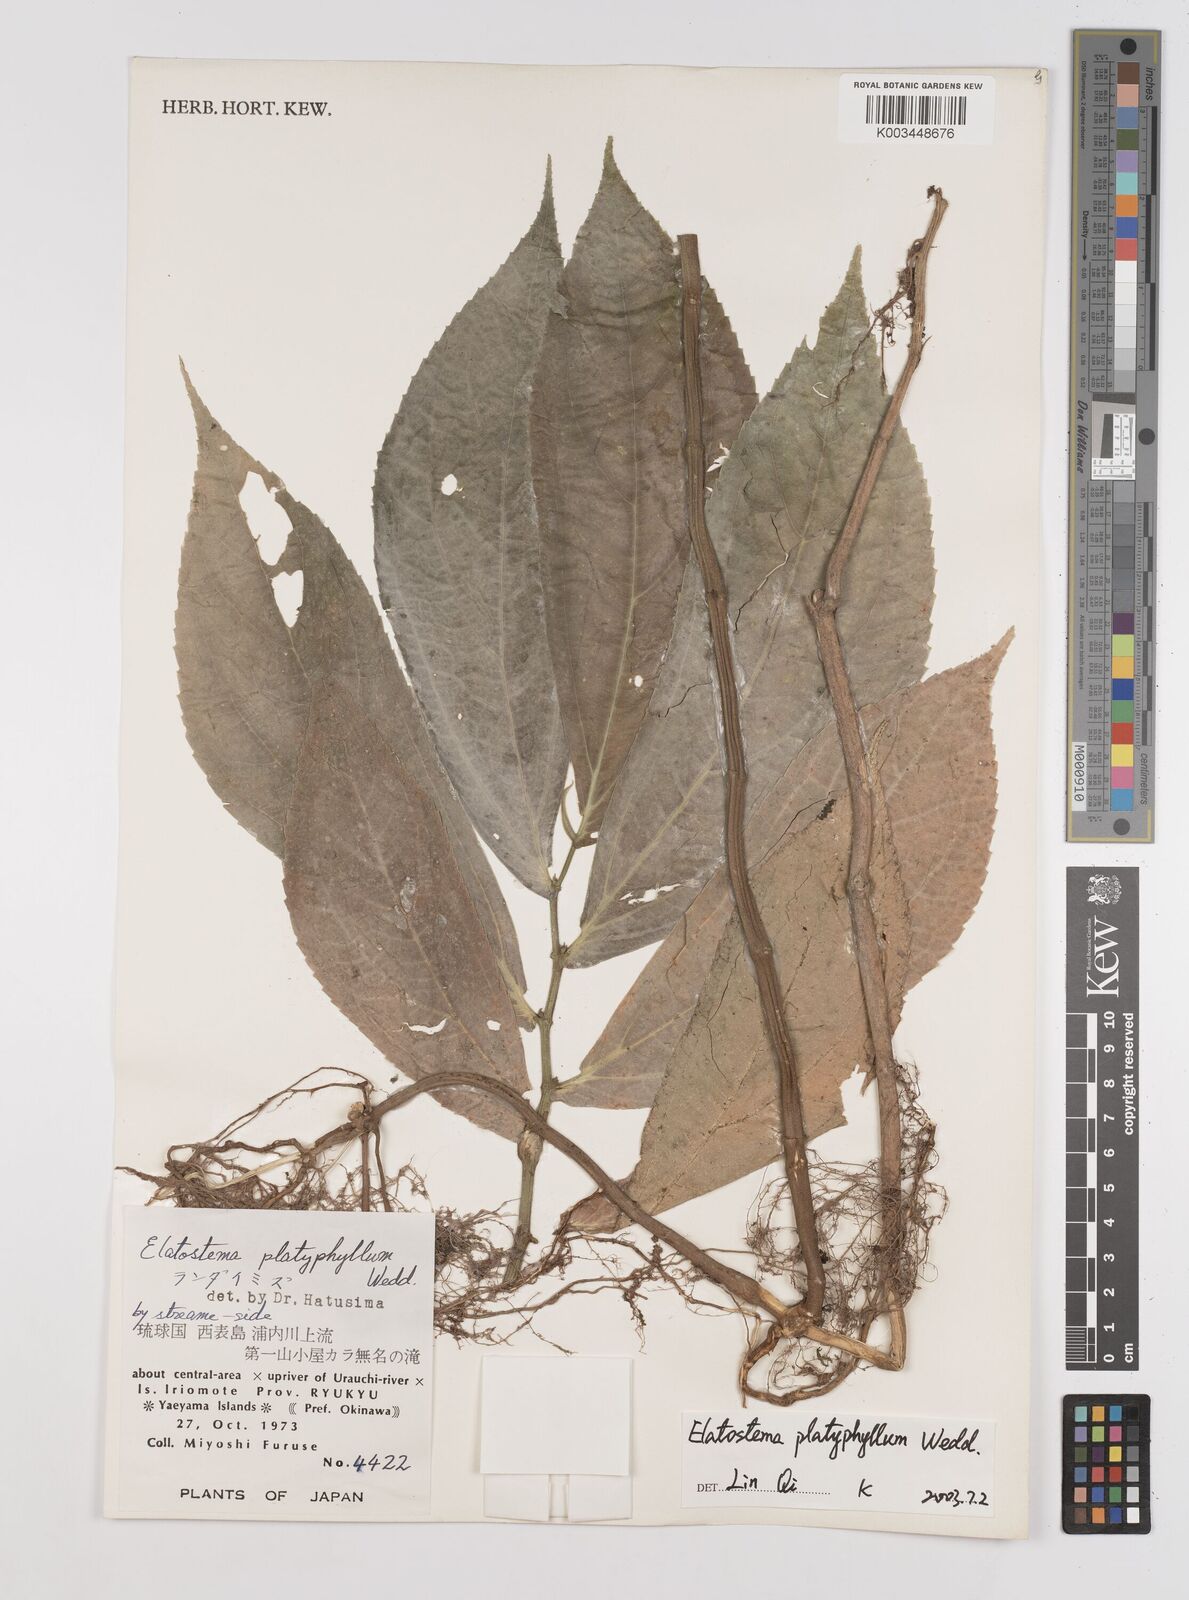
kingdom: Plantae
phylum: Tracheophyta
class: Magnoliopsida
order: Rosales
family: Urticaceae
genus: Elatostema
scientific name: Elatostema platyphyllum
